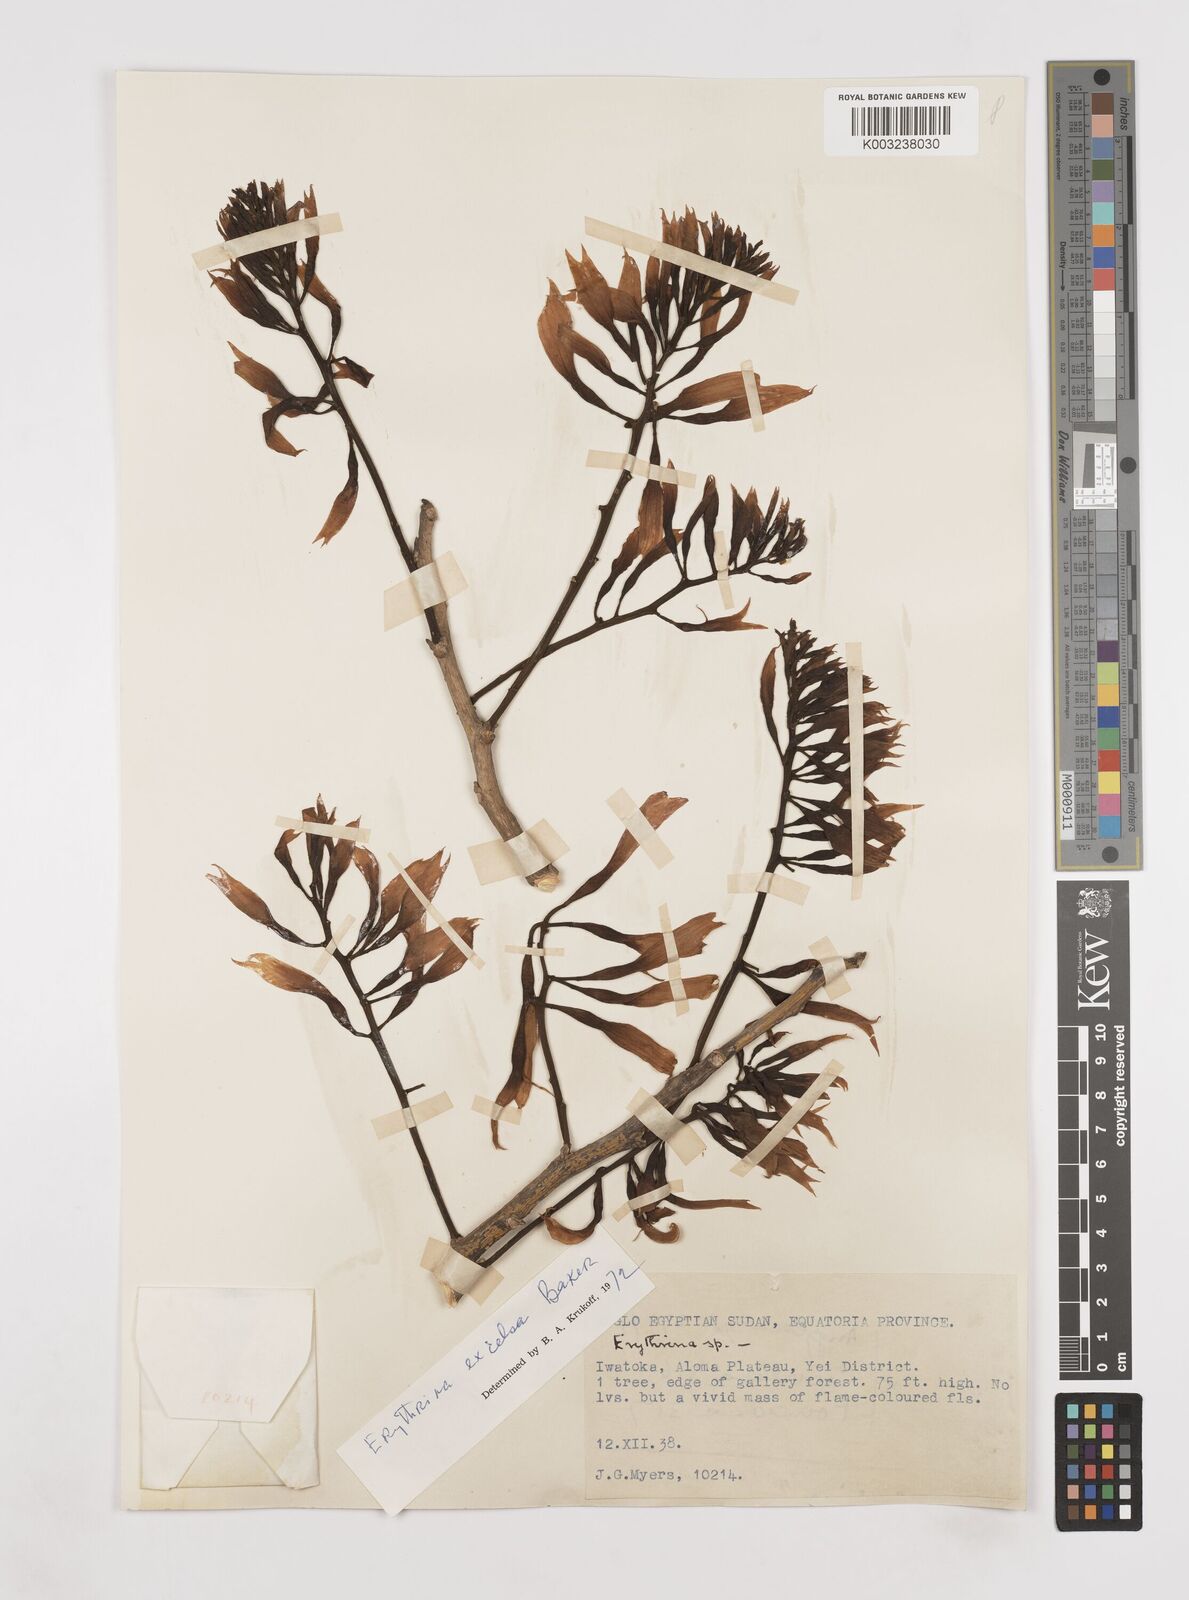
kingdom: Plantae
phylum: Tracheophyta
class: Magnoliopsida
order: Fabales
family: Fabaceae
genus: Erythrina
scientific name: Erythrina excelsa
